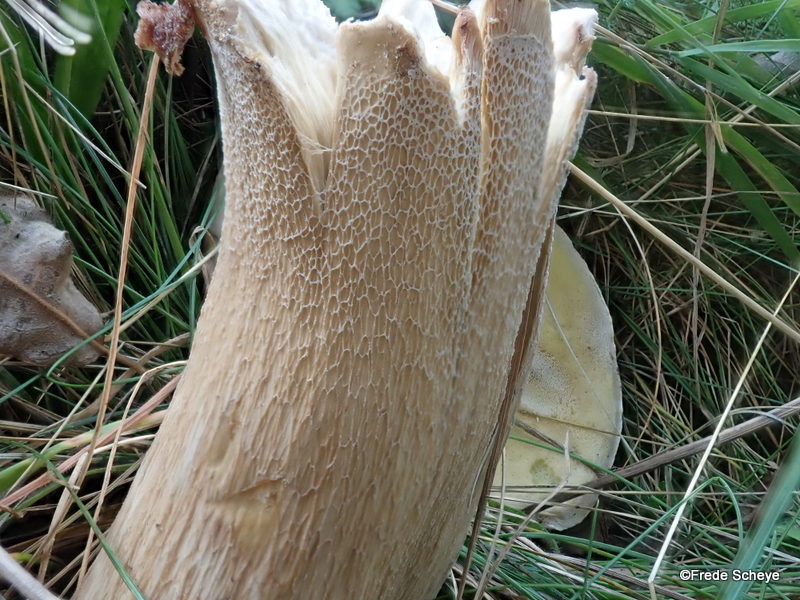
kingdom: Fungi
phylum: Basidiomycota
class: Agaricomycetes
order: Boletales
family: Boletaceae
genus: Boletus
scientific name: Boletus edulis
